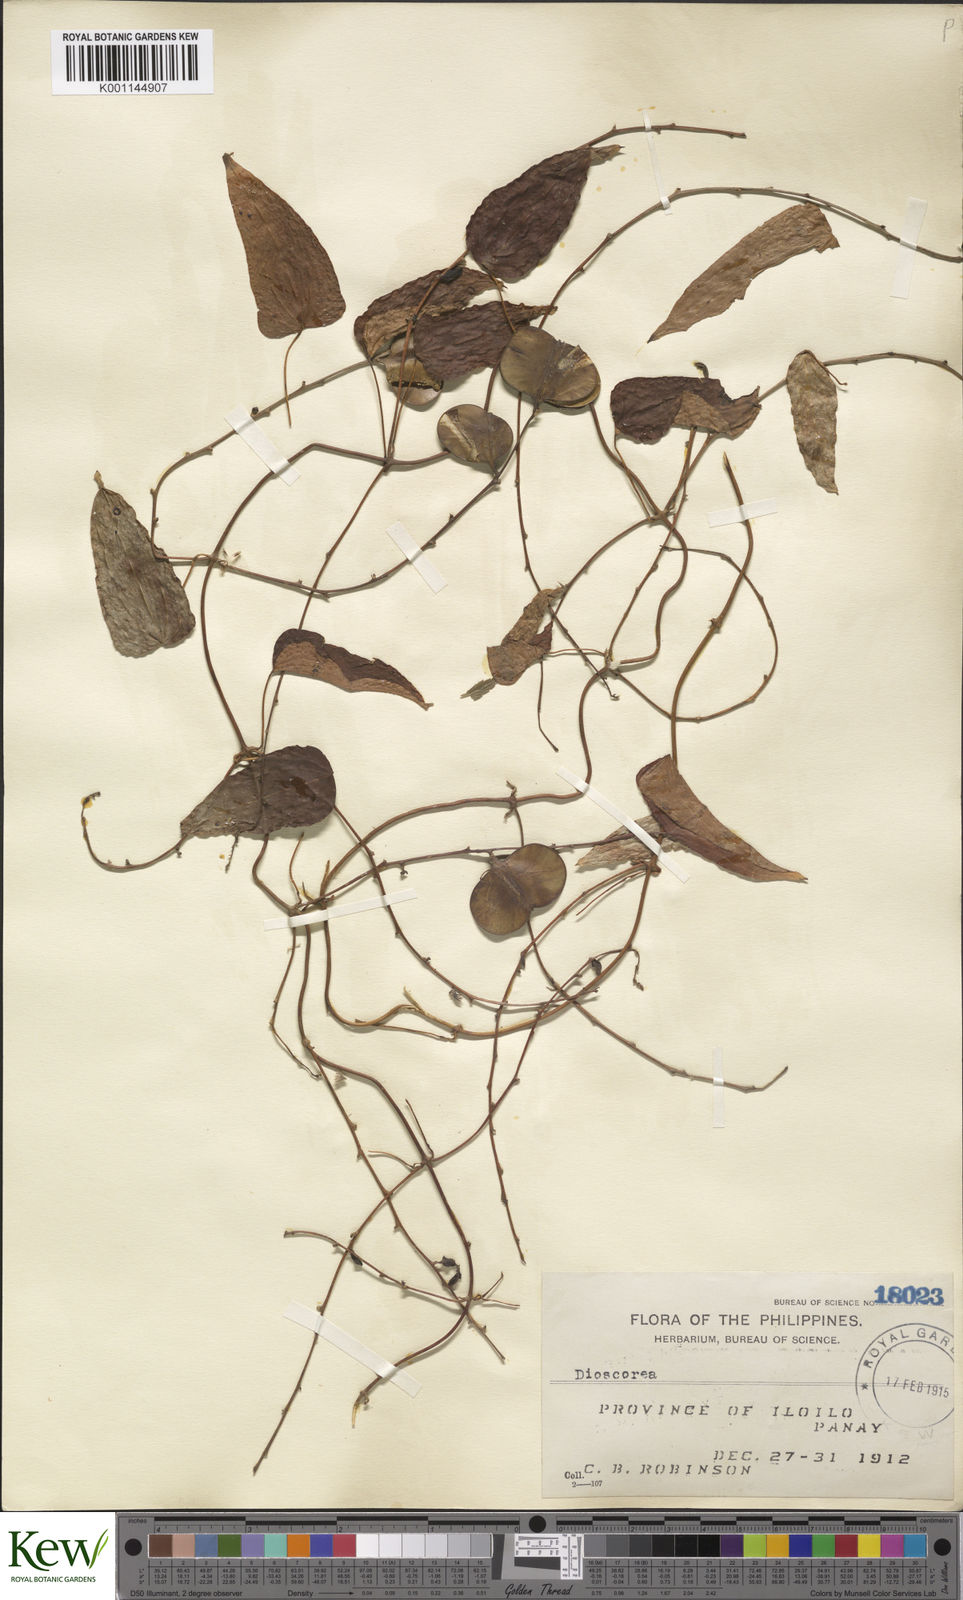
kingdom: Plantae
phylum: Tracheophyta
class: Liliopsida
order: Dioscoreales
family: Dioscoreaceae
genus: Dioscorea
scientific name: Dioscorea divaricata
